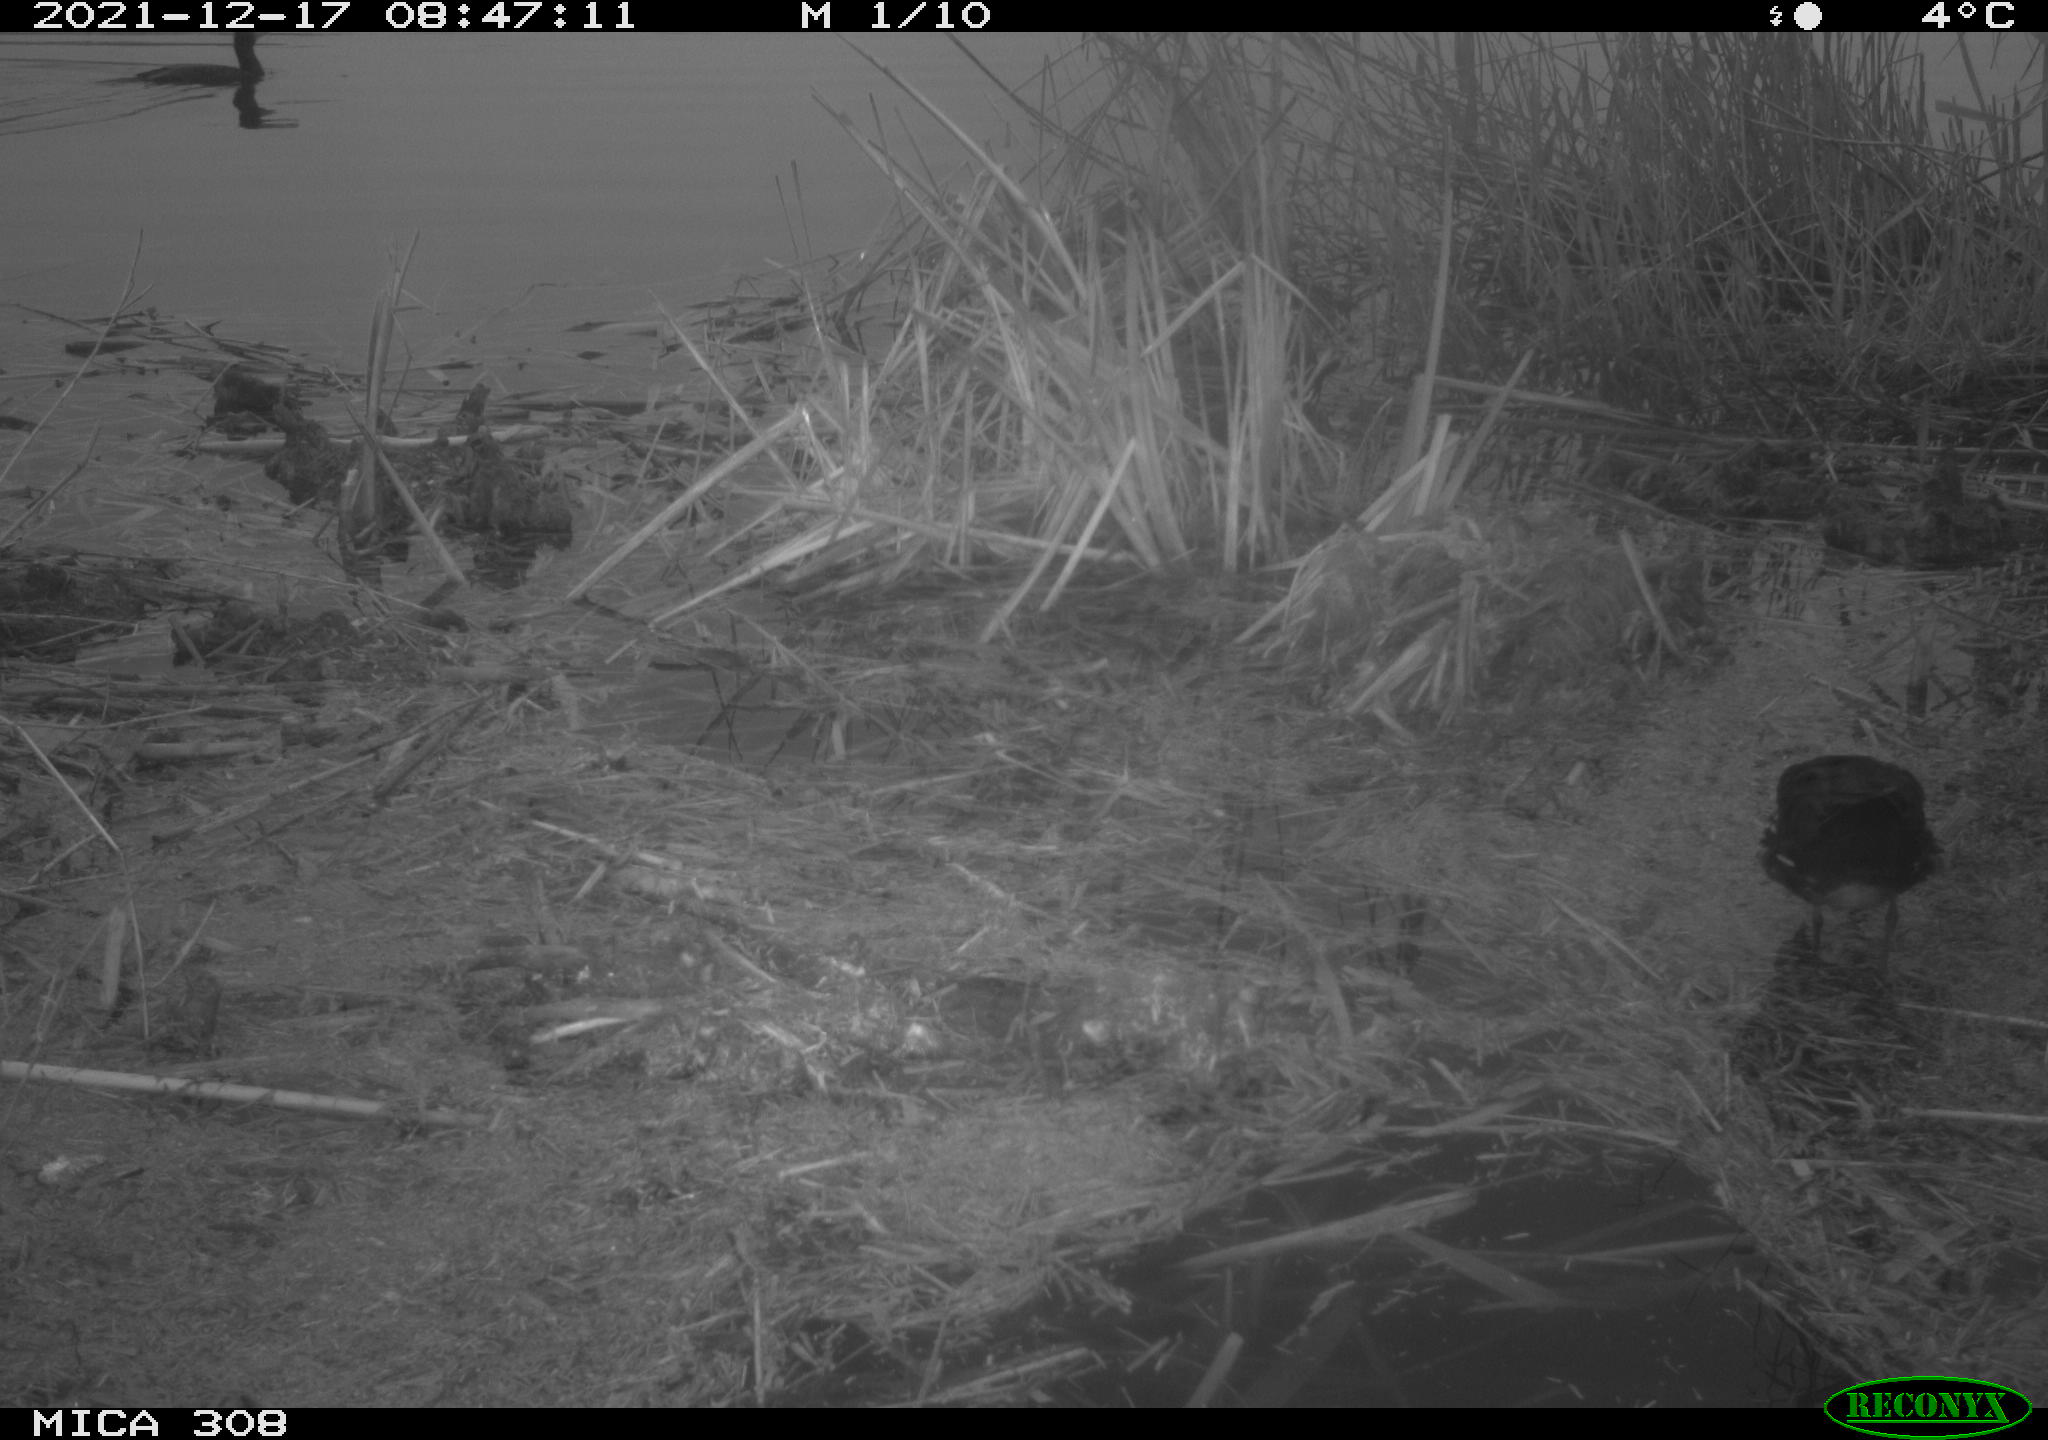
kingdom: Animalia
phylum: Chordata
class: Aves
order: Gruiformes
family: Rallidae
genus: Gallinula
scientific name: Gallinula chloropus
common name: Common moorhen
